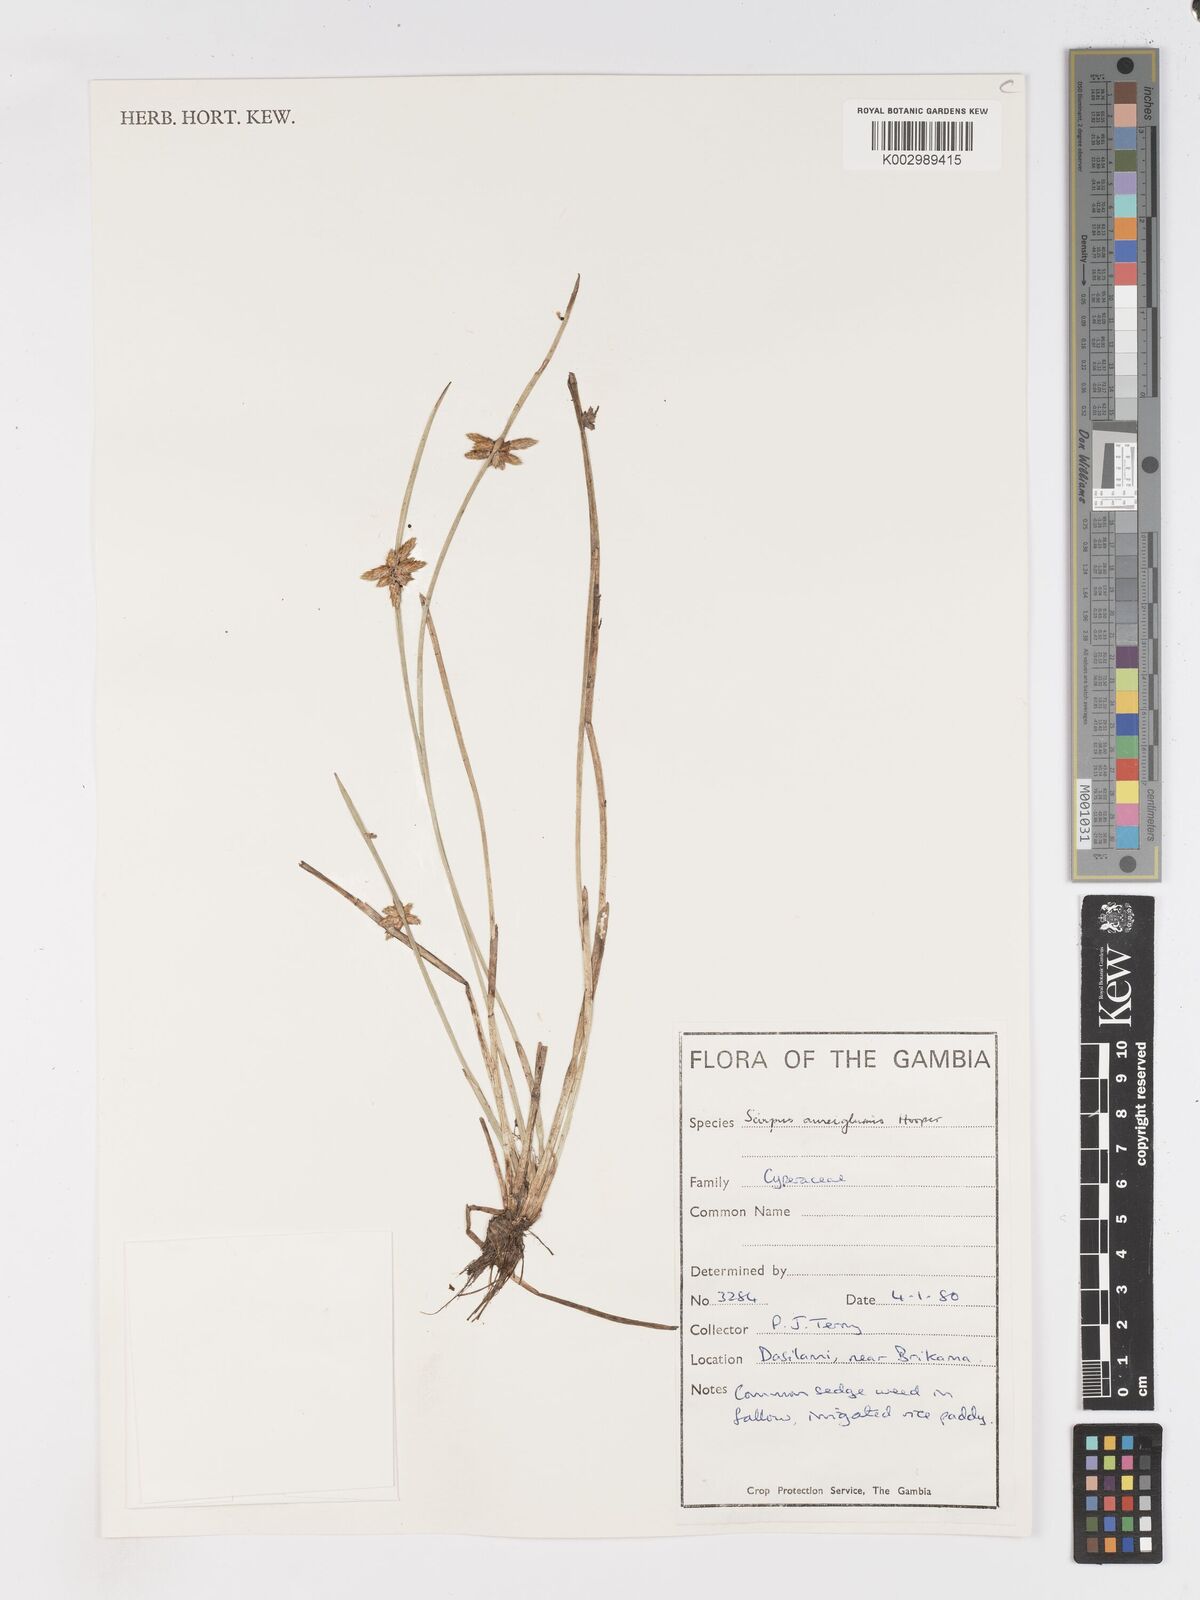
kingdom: Plantae
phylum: Tracheophyta
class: Liliopsida
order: Poales
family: Cyperaceae
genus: Schoenoplectus
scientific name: Schoenoplectus
